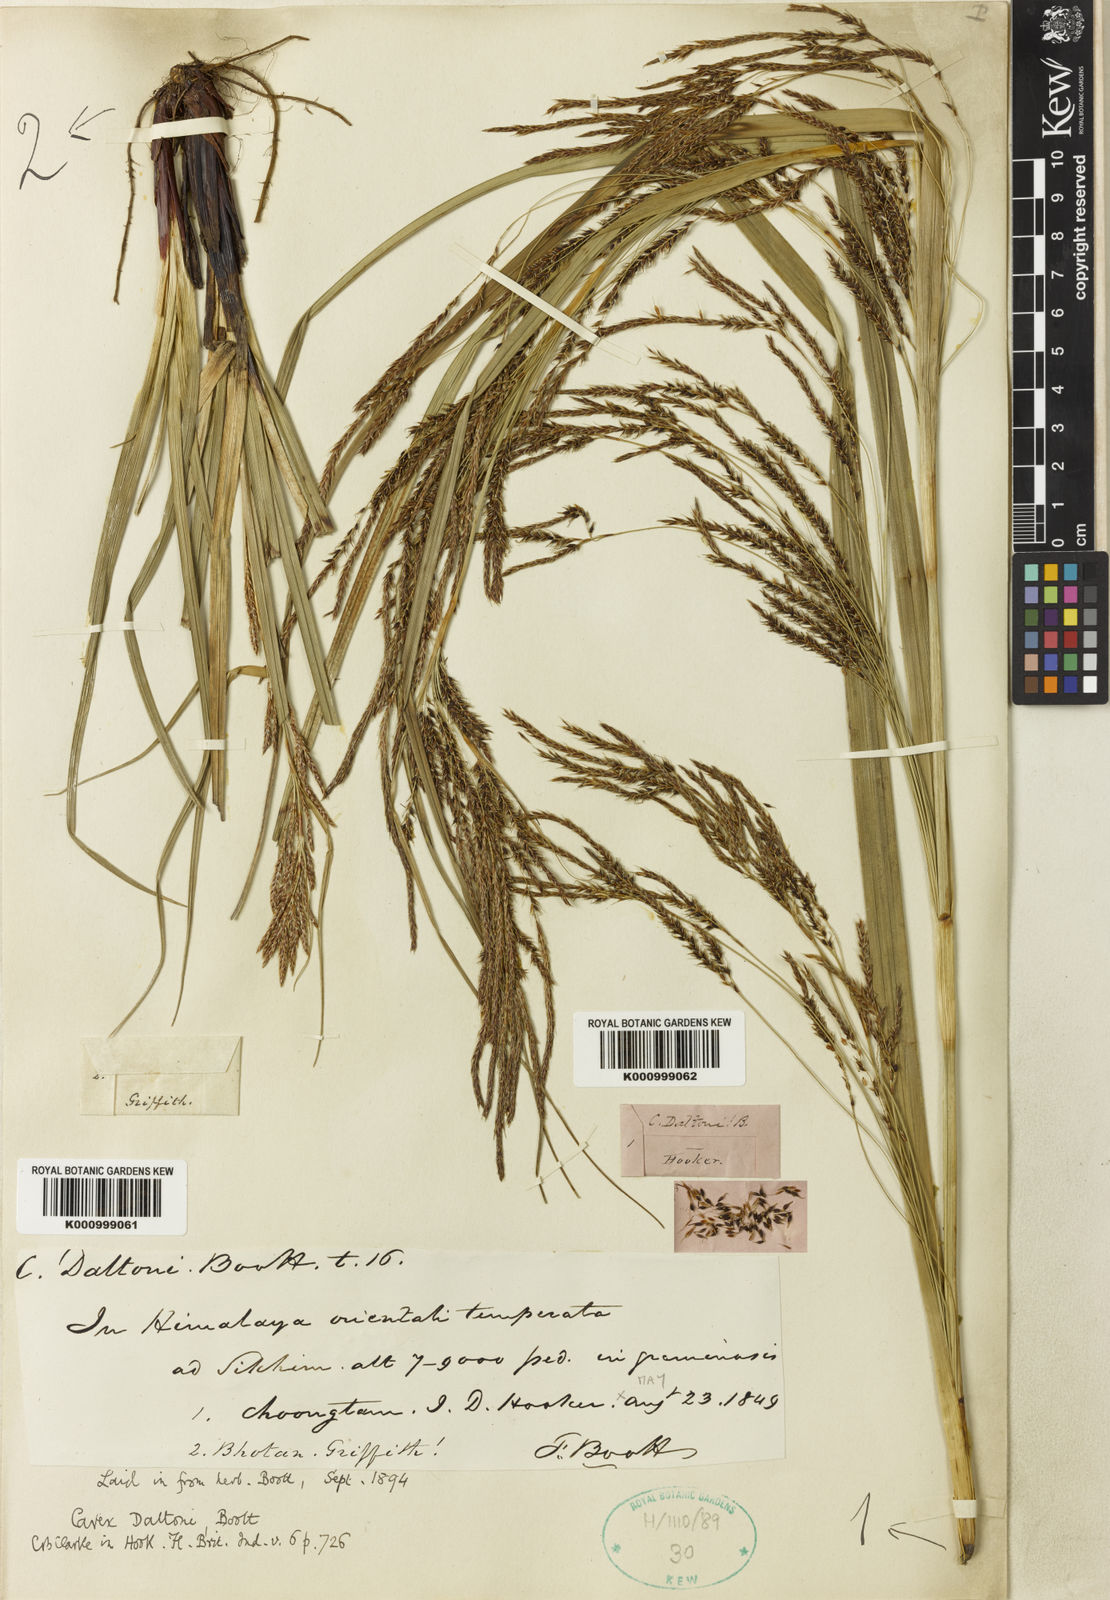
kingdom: Plantae
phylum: Tracheophyta
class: Liliopsida
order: Poales
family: Cyperaceae
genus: Carex
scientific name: Carex daltoni
